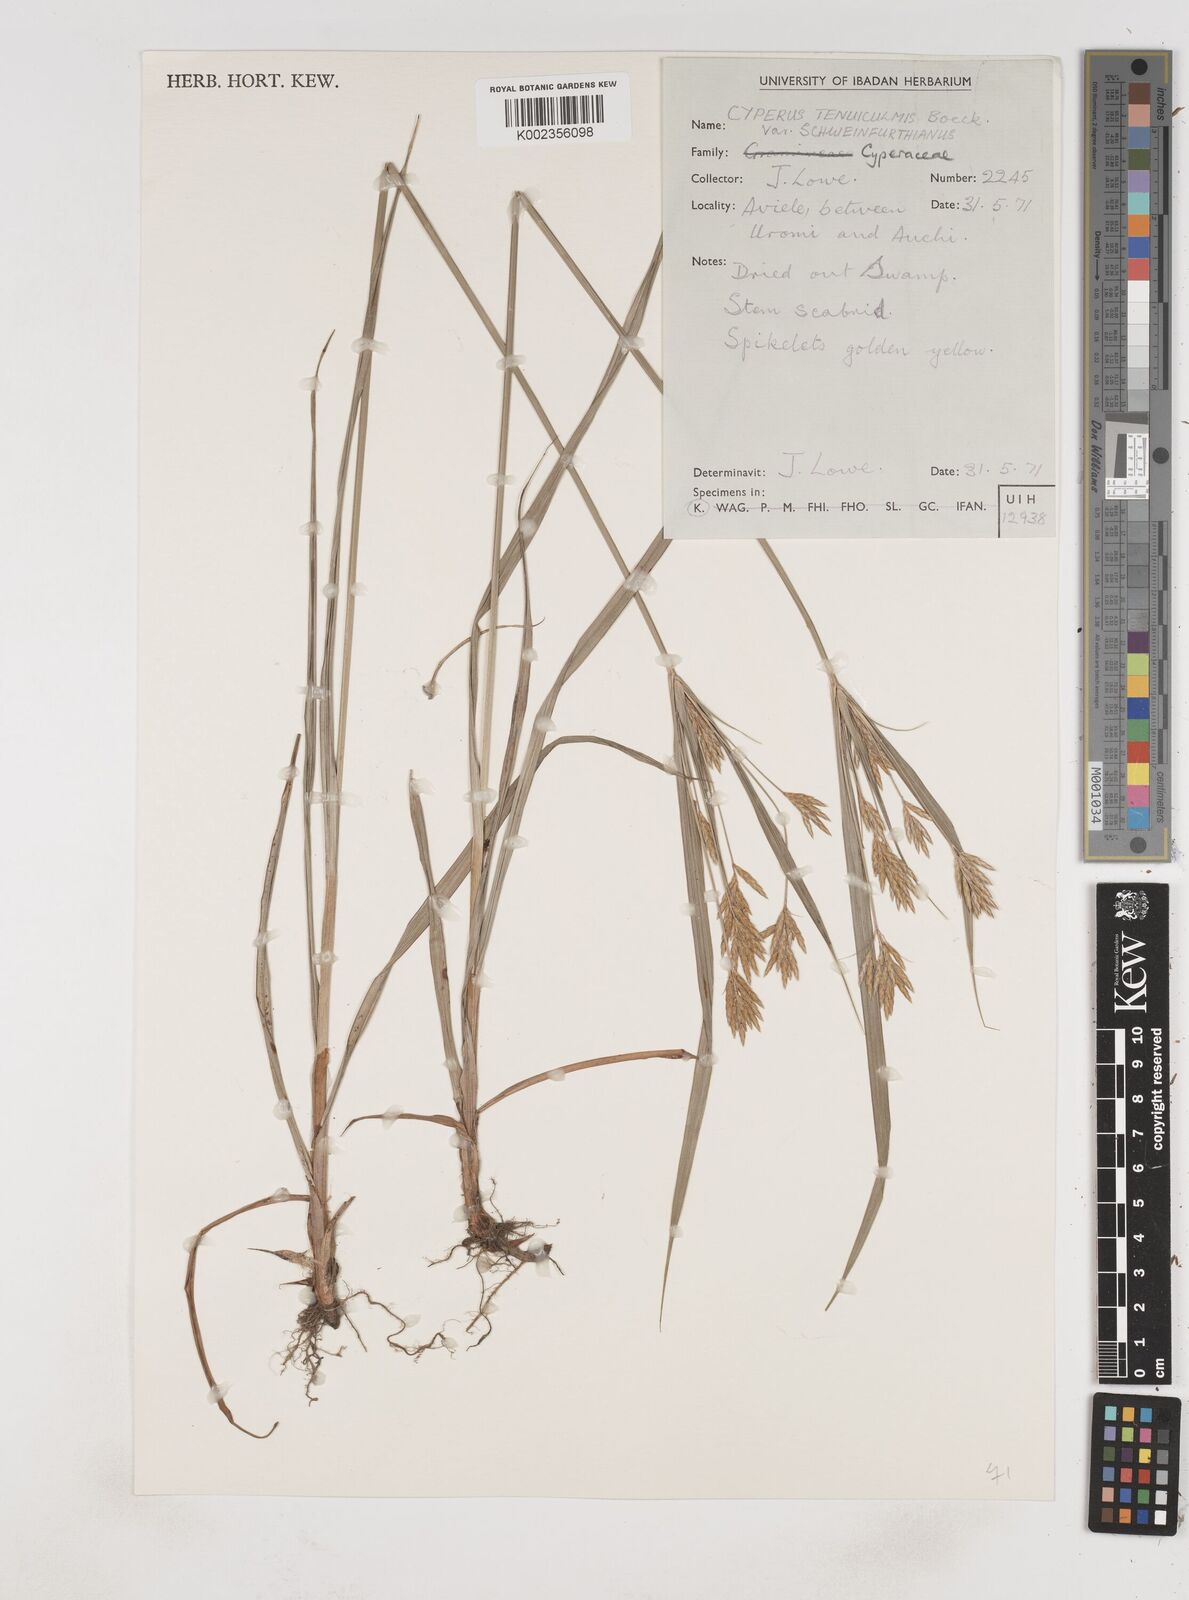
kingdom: Plantae
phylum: Tracheophyta
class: Liliopsida
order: Poales
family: Cyperaceae
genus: Cyperus
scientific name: Cyperus tenuiculmis
